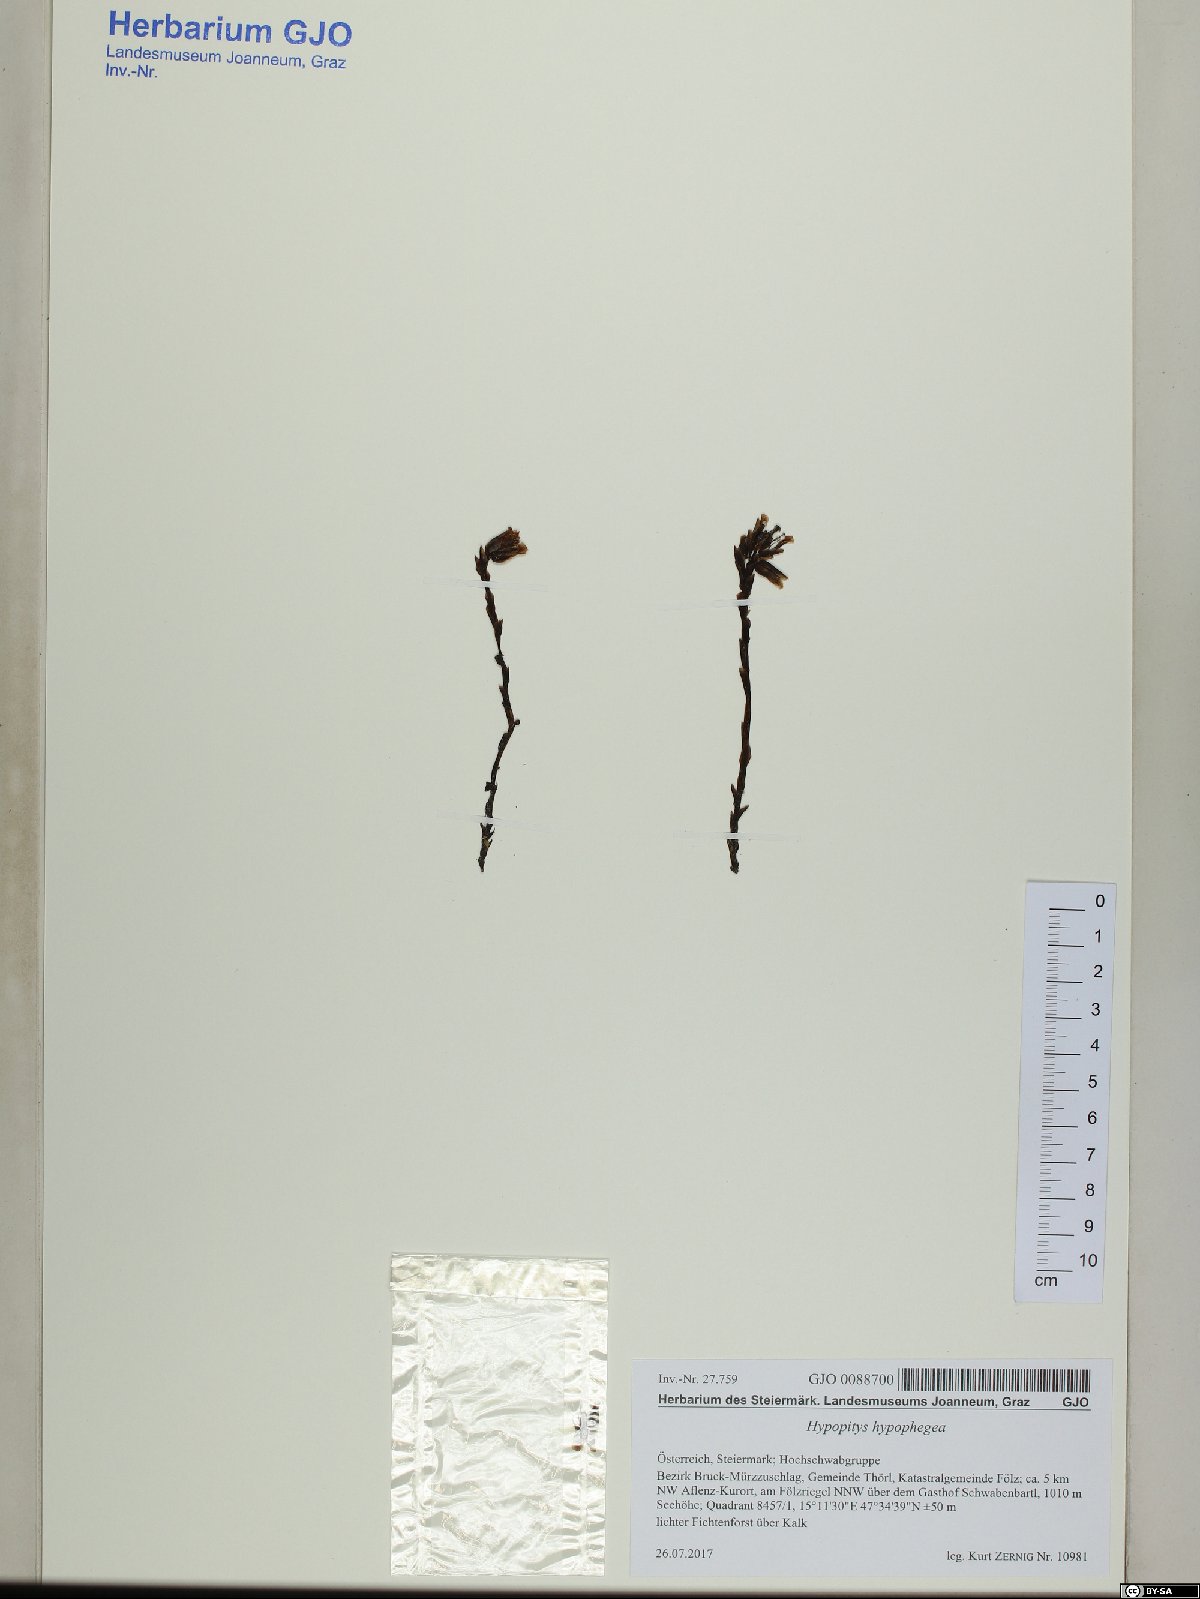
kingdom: Plantae
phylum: Tracheophyta
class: Magnoliopsida
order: Ericales
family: Ericaceae
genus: Hypopitys
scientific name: Hypopitys hypophegea
